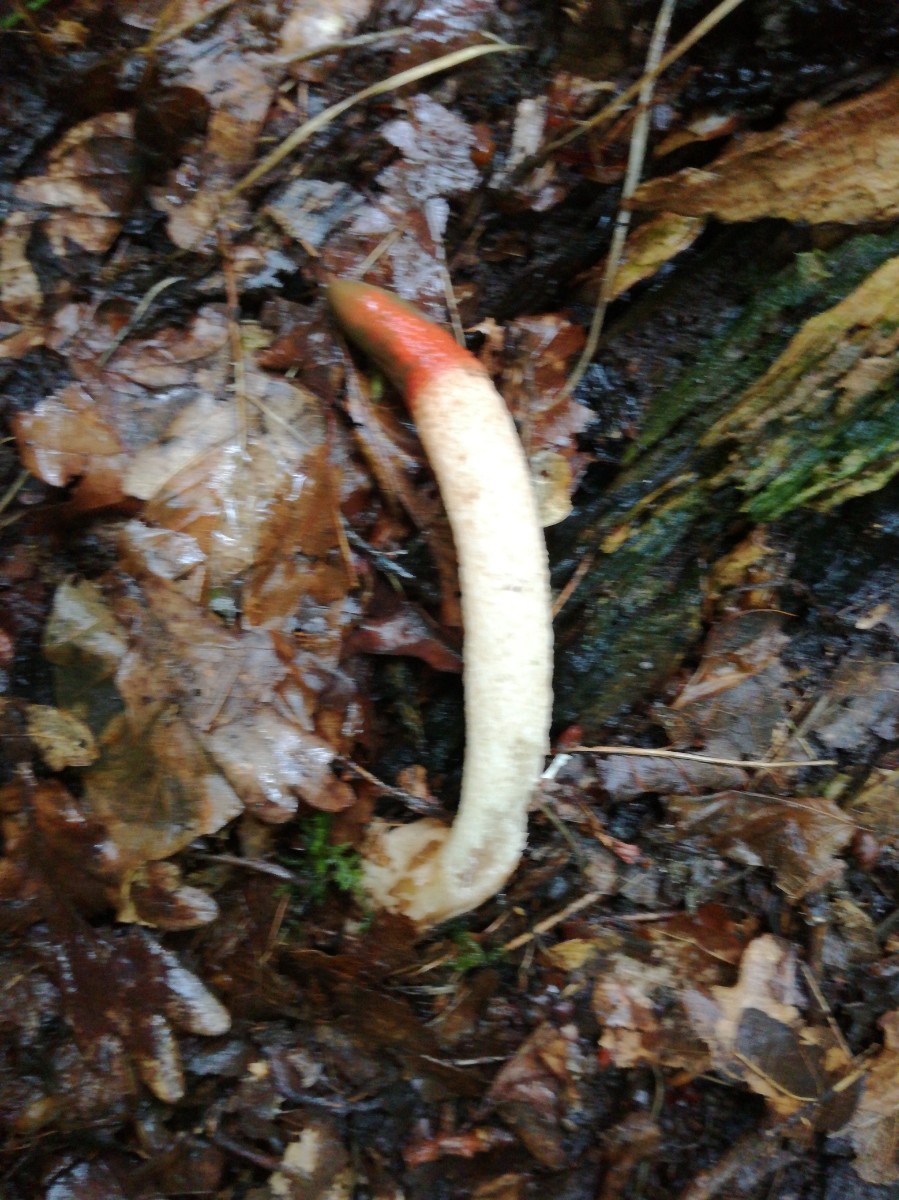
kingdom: Fungi
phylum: Basidiomycota
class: Agaricomycetes
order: Phallales
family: Phallaceae
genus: Mutinus
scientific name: Mutinus caninus
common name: hunde-stinksvamp
